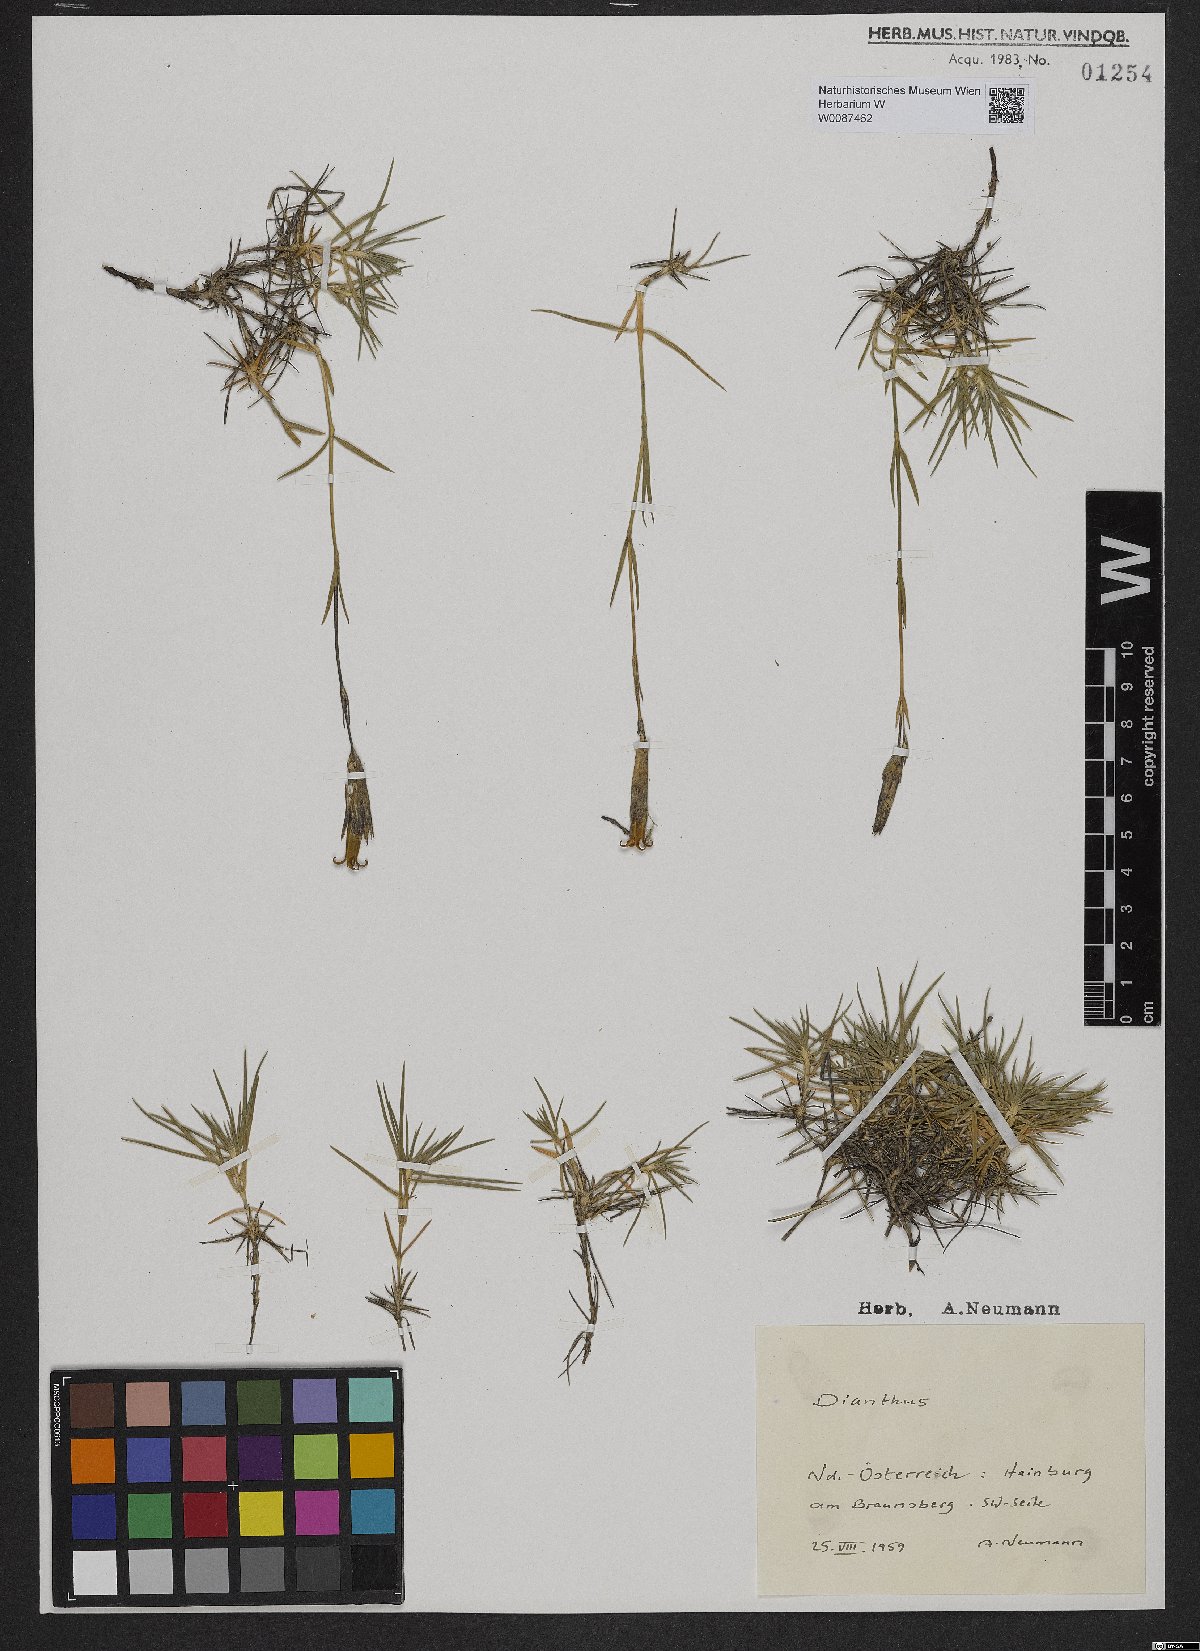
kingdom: Plantae
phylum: Tracheophyta
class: Magnoliopsida
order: Caryophyllales
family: Caryophyllaceae
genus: Dianthus
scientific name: Dianthus praecox
